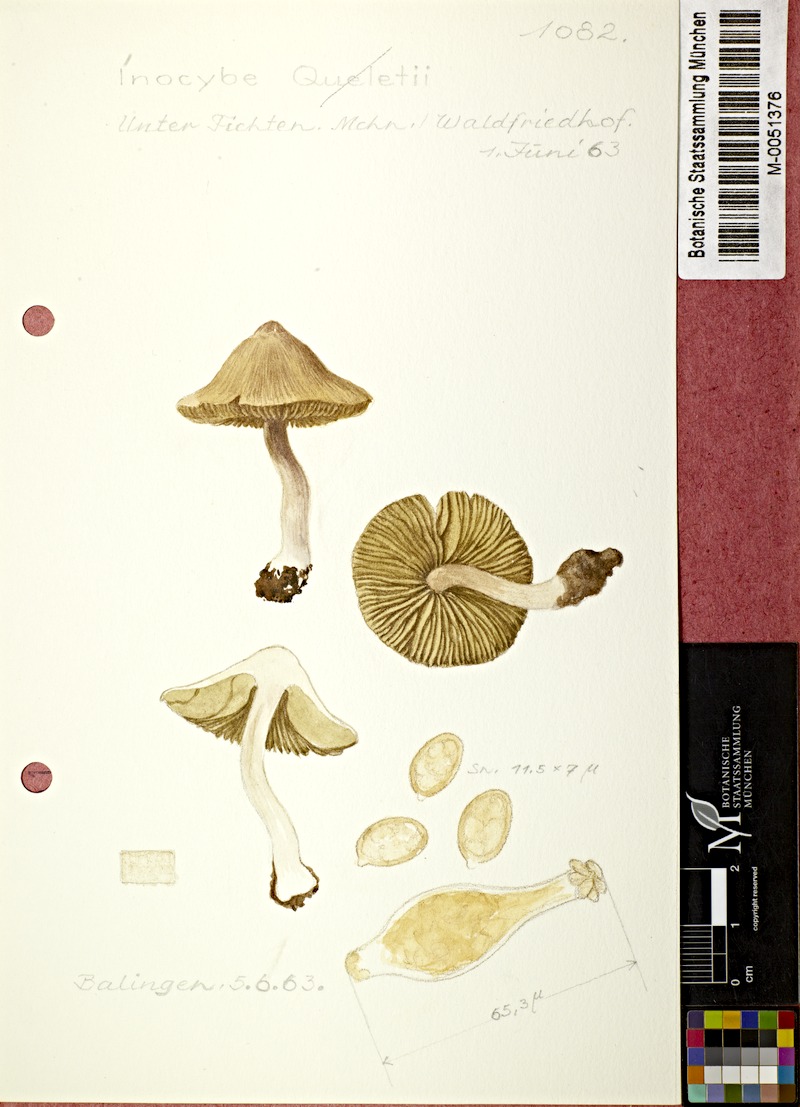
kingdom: Fungi
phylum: Basidiomycota
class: Agaricomycetes
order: Agaricales
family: Inocybaceae
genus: Inocybe
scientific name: Inocybe queletii
